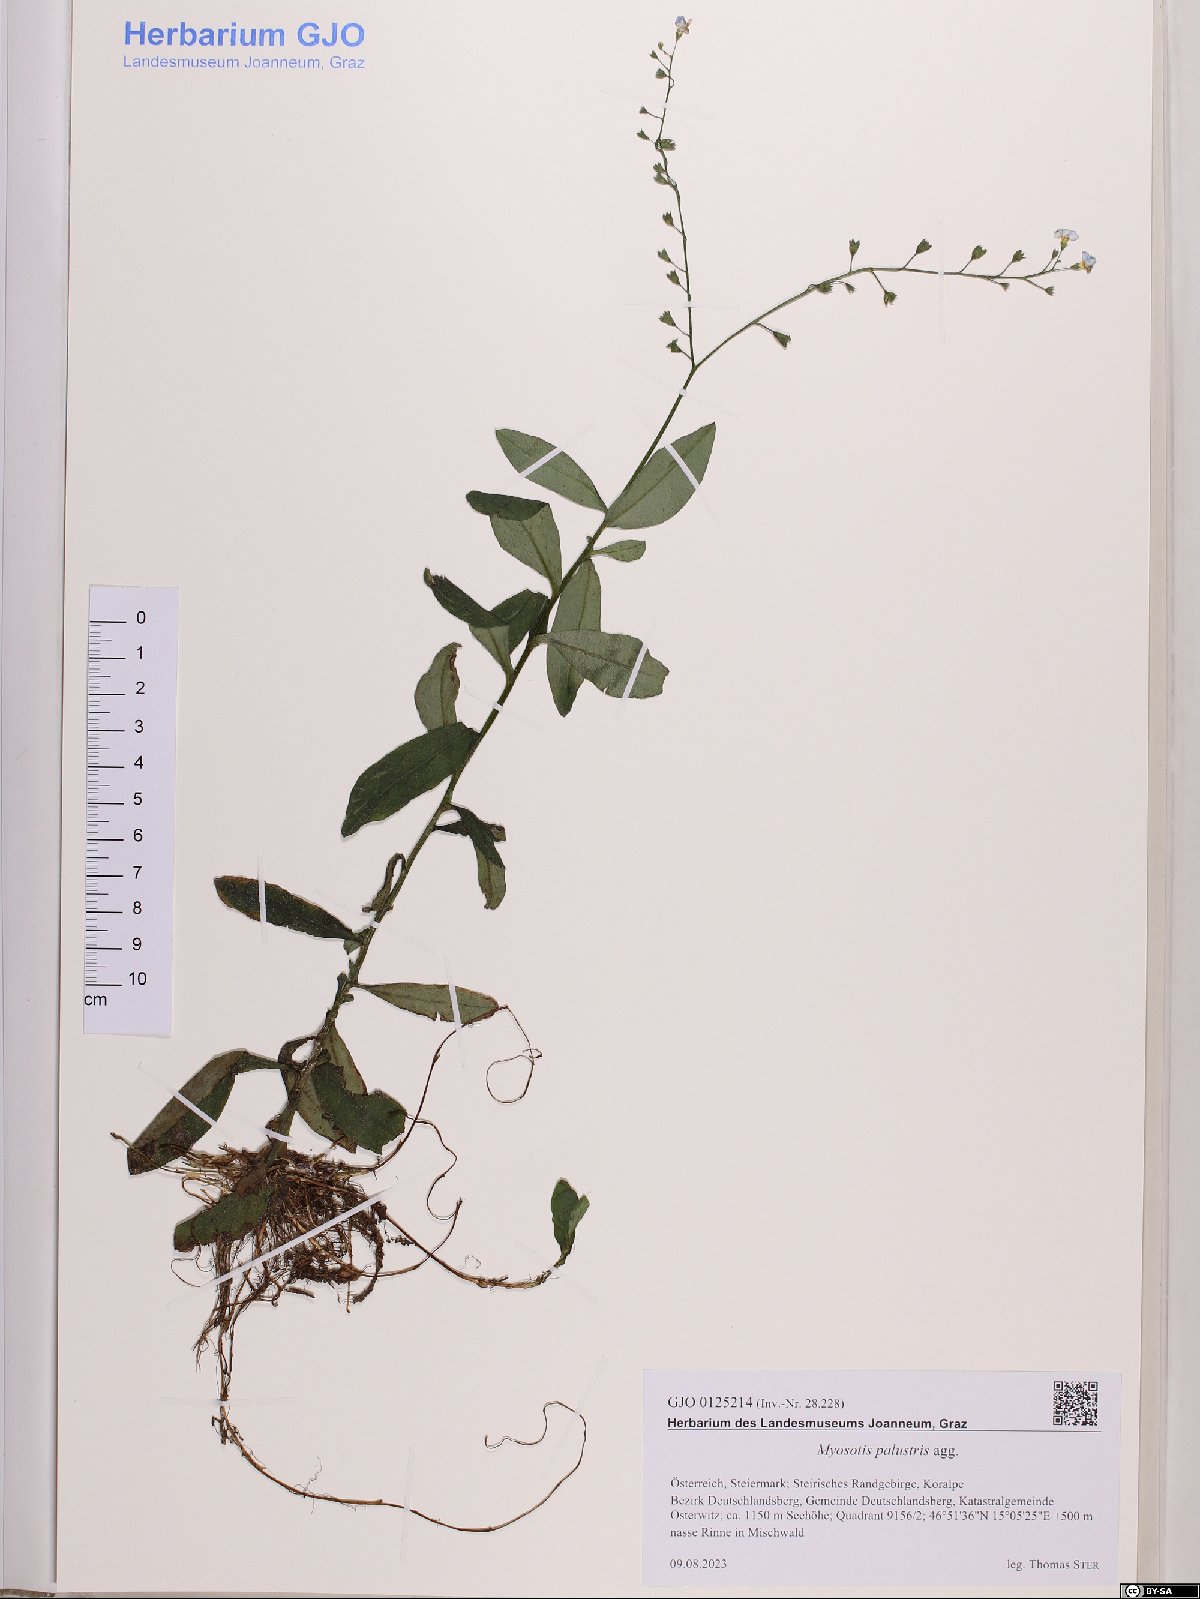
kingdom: Plantae
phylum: Tracheophyta
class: Magnoliopsida
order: Boraginales
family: Boraginaceae
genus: Myosotis
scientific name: Myosotis scorpioides
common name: Water forget-me-not
